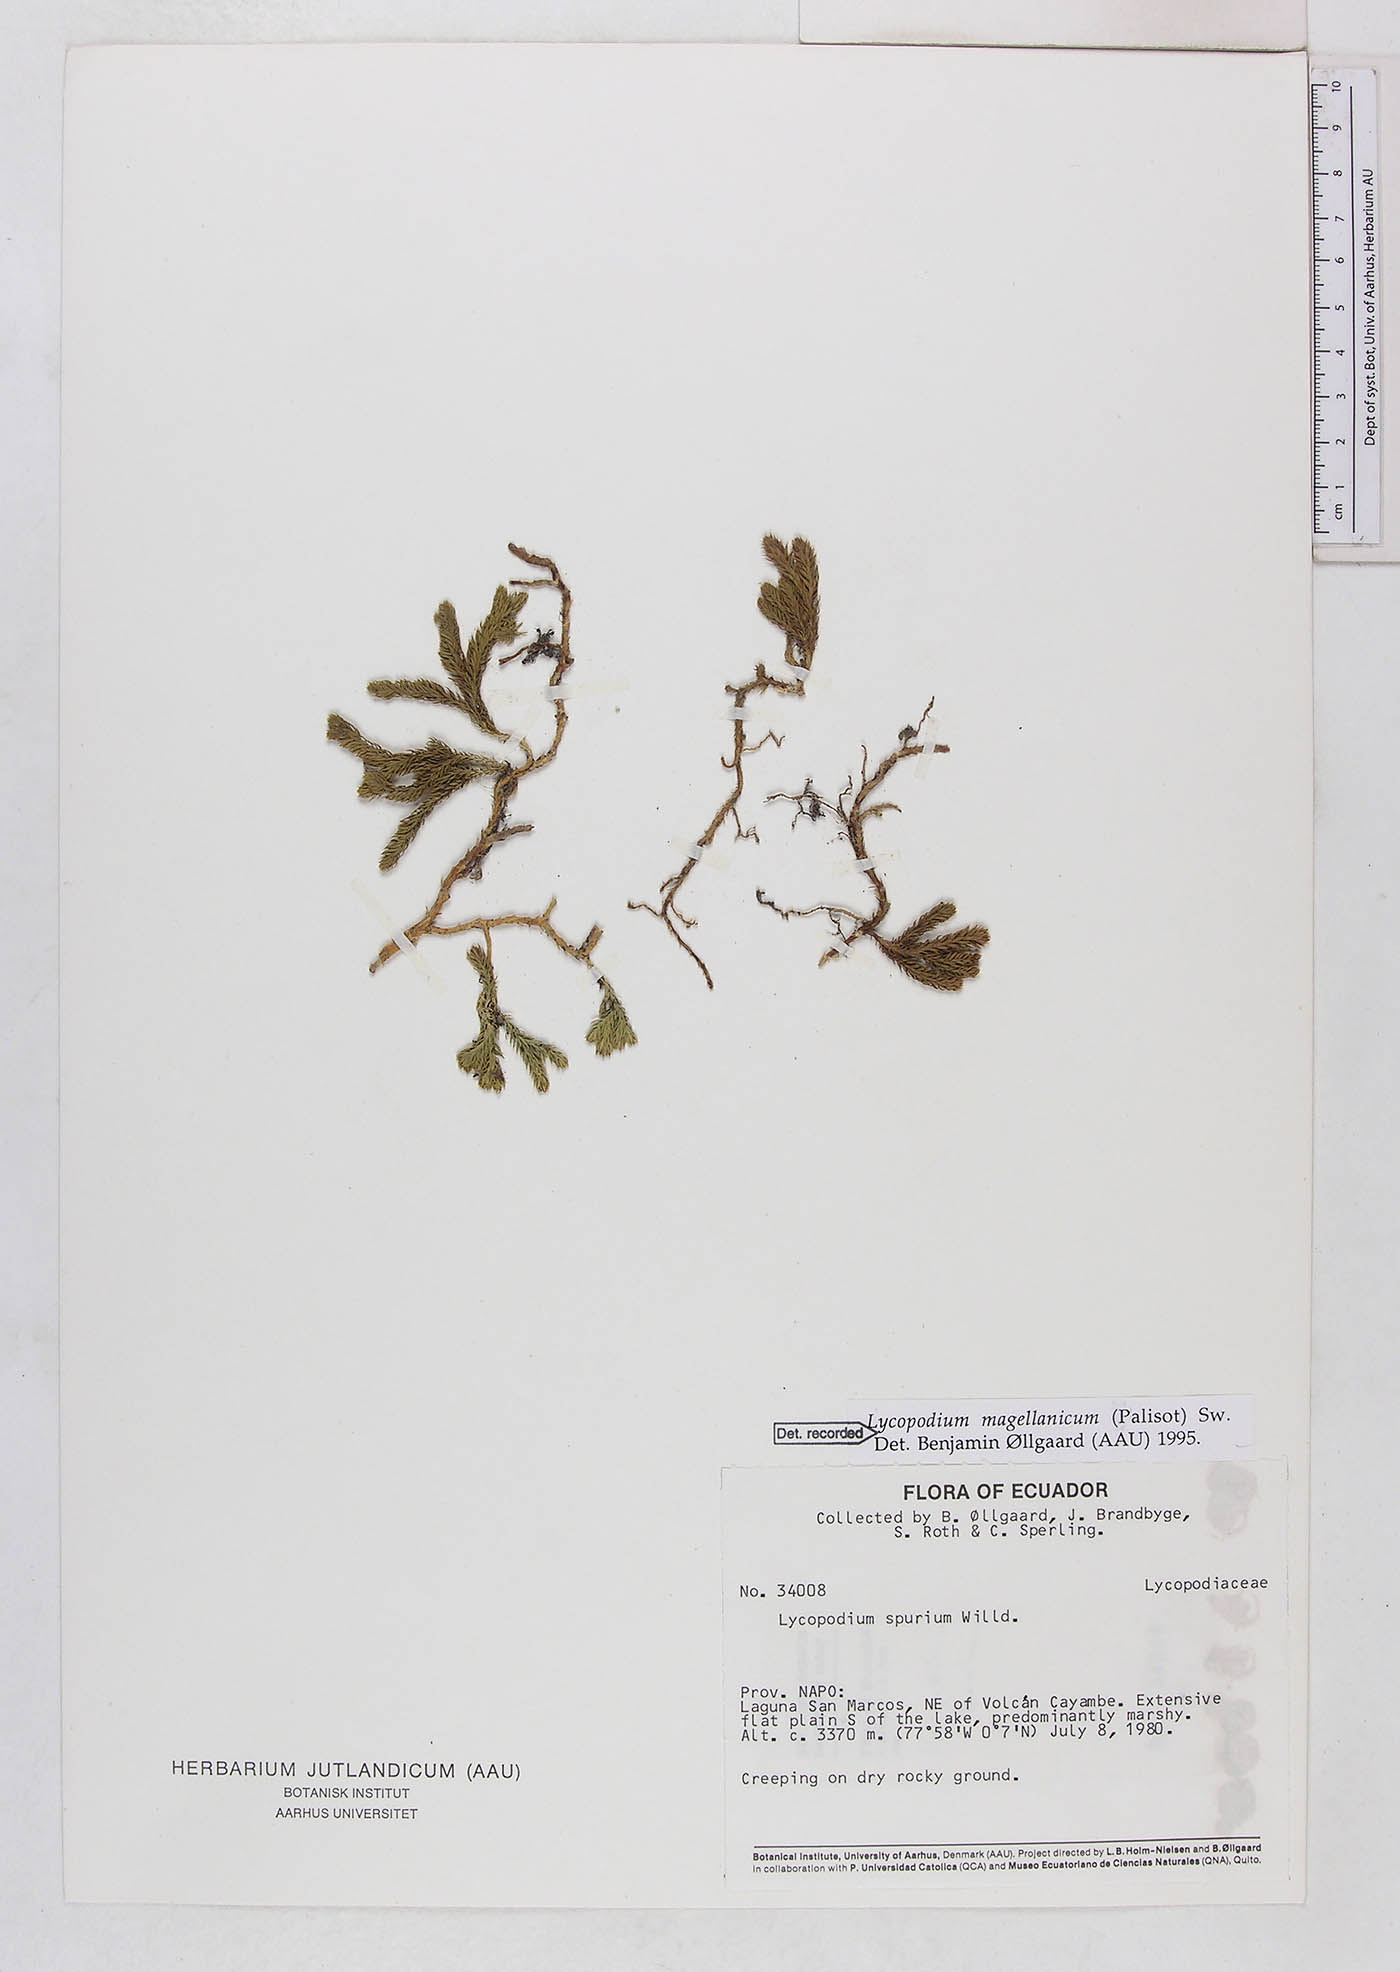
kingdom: Plantae
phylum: Tracheophyta
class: Lycopodiopsida
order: Lycopodiales
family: Lycopodiaceae
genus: Austrolycopodium
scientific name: Austrolycopodium magellanicum
